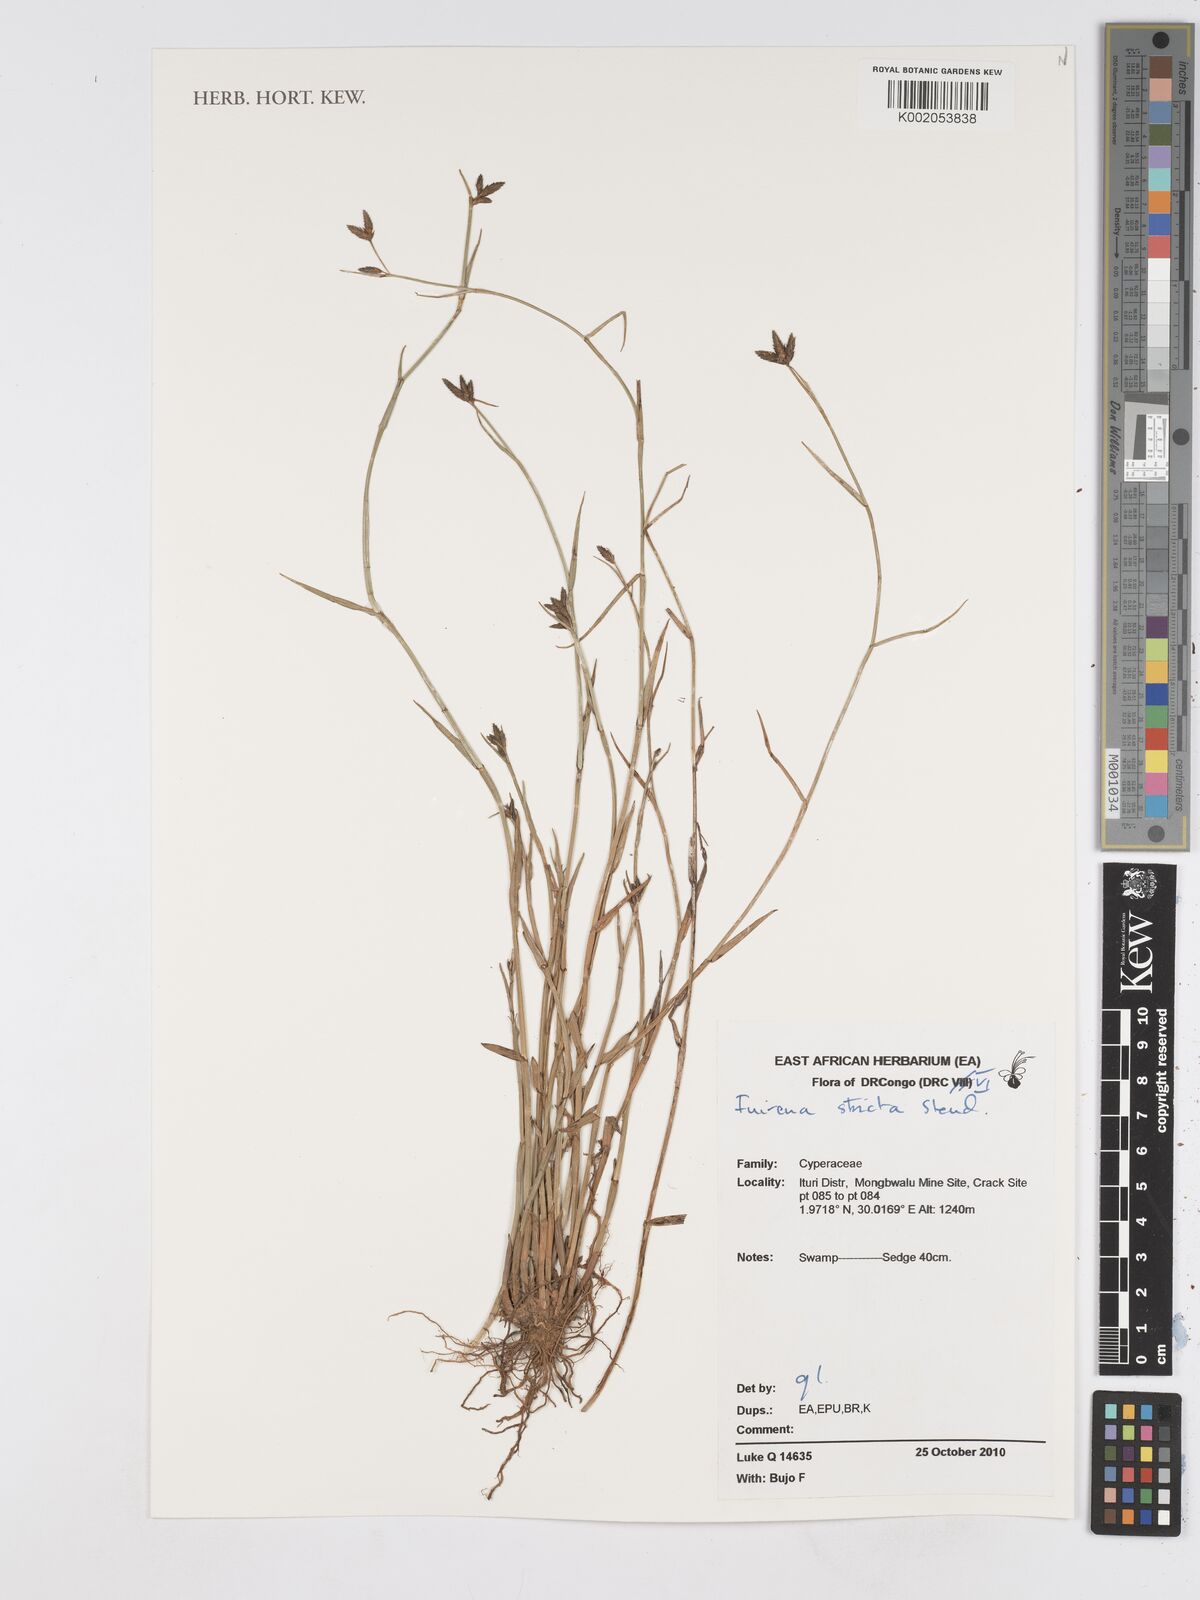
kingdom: Plantae
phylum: Tracheophyta
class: Liliopsida
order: Poales
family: Cyperaceae
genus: Fuirena
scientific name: Fuirena stricta
